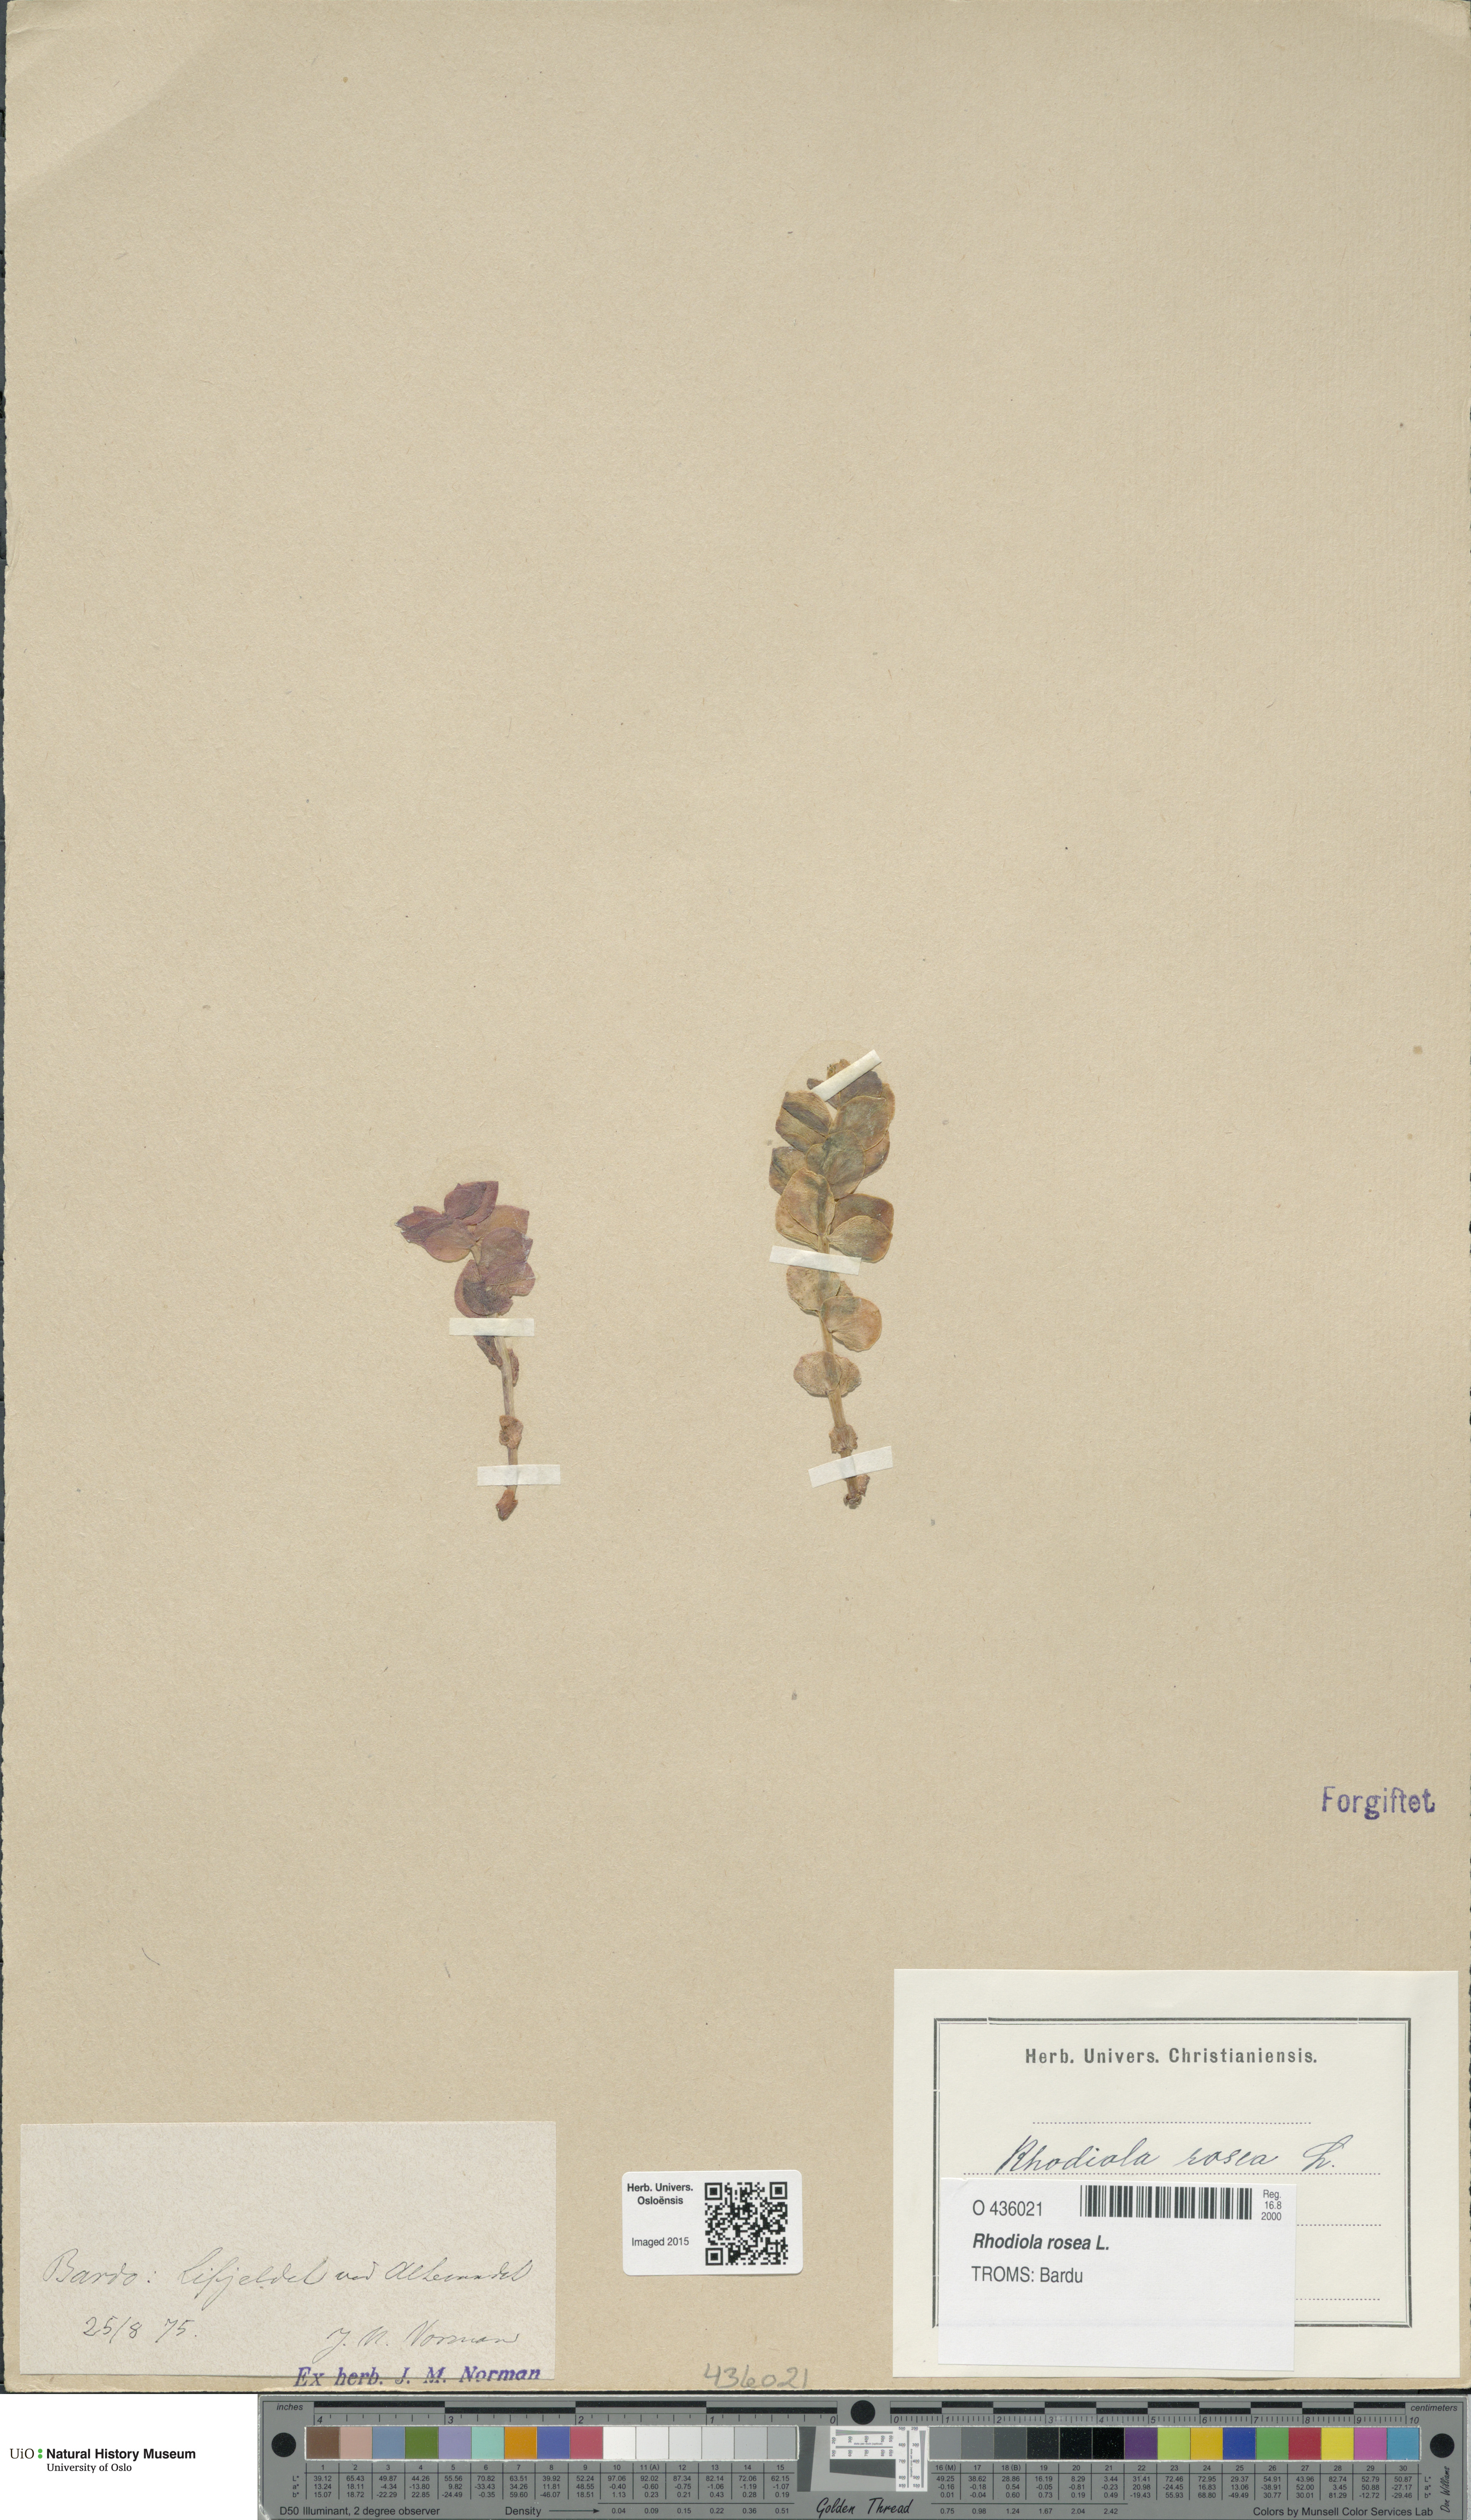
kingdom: Plantae
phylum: Tracheophyta
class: Magnoliopsida
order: Saxifragales
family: Crassulaceae
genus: Rhodiola
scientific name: Rhodiola rosea
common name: Roseroot
